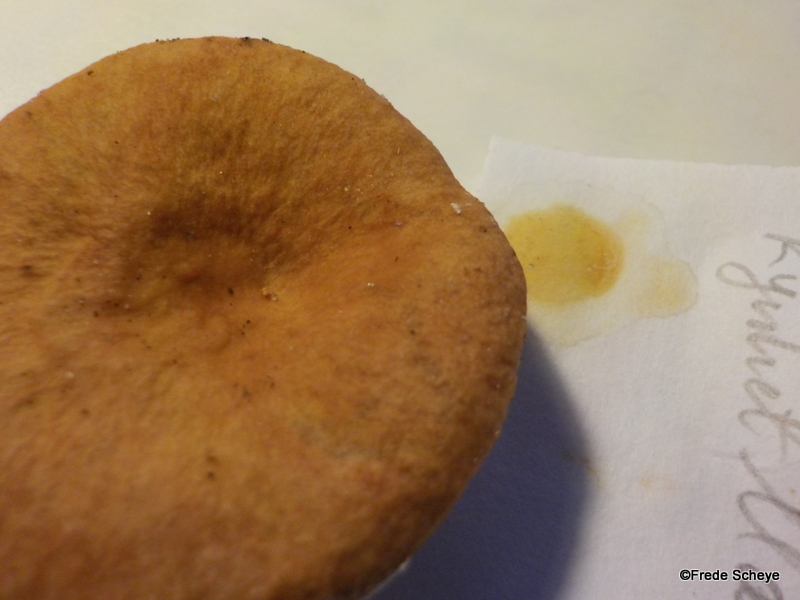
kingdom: Fungi
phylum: Basidiomycota
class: Agaricomycetes
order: Russulales
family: Russulaceae
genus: Lactarius
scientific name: Lactarius tabidus
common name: rynket mælkehat
